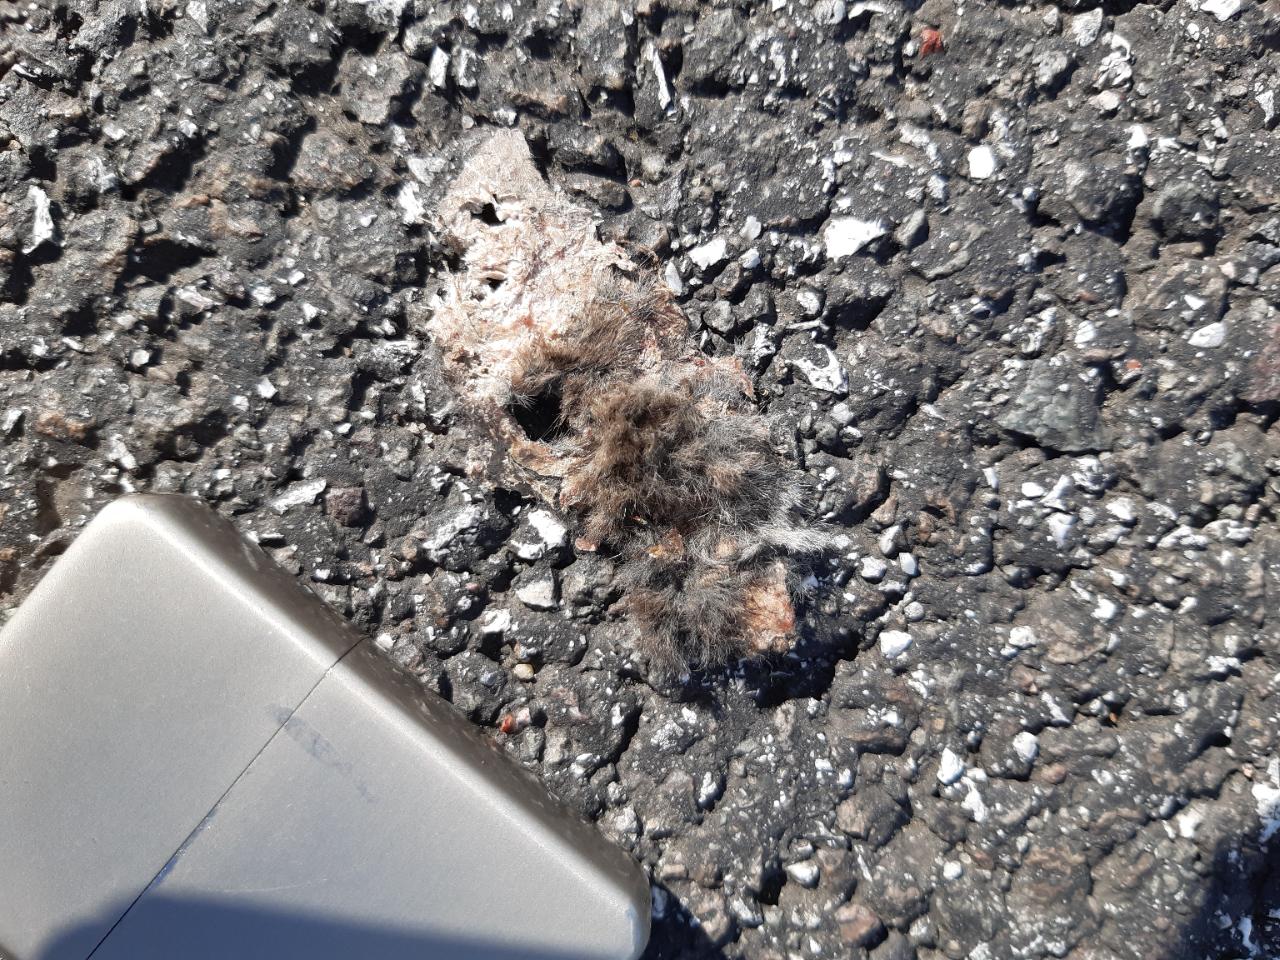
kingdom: Animalia
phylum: Chordata
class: Mammalia
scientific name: Mammalia
